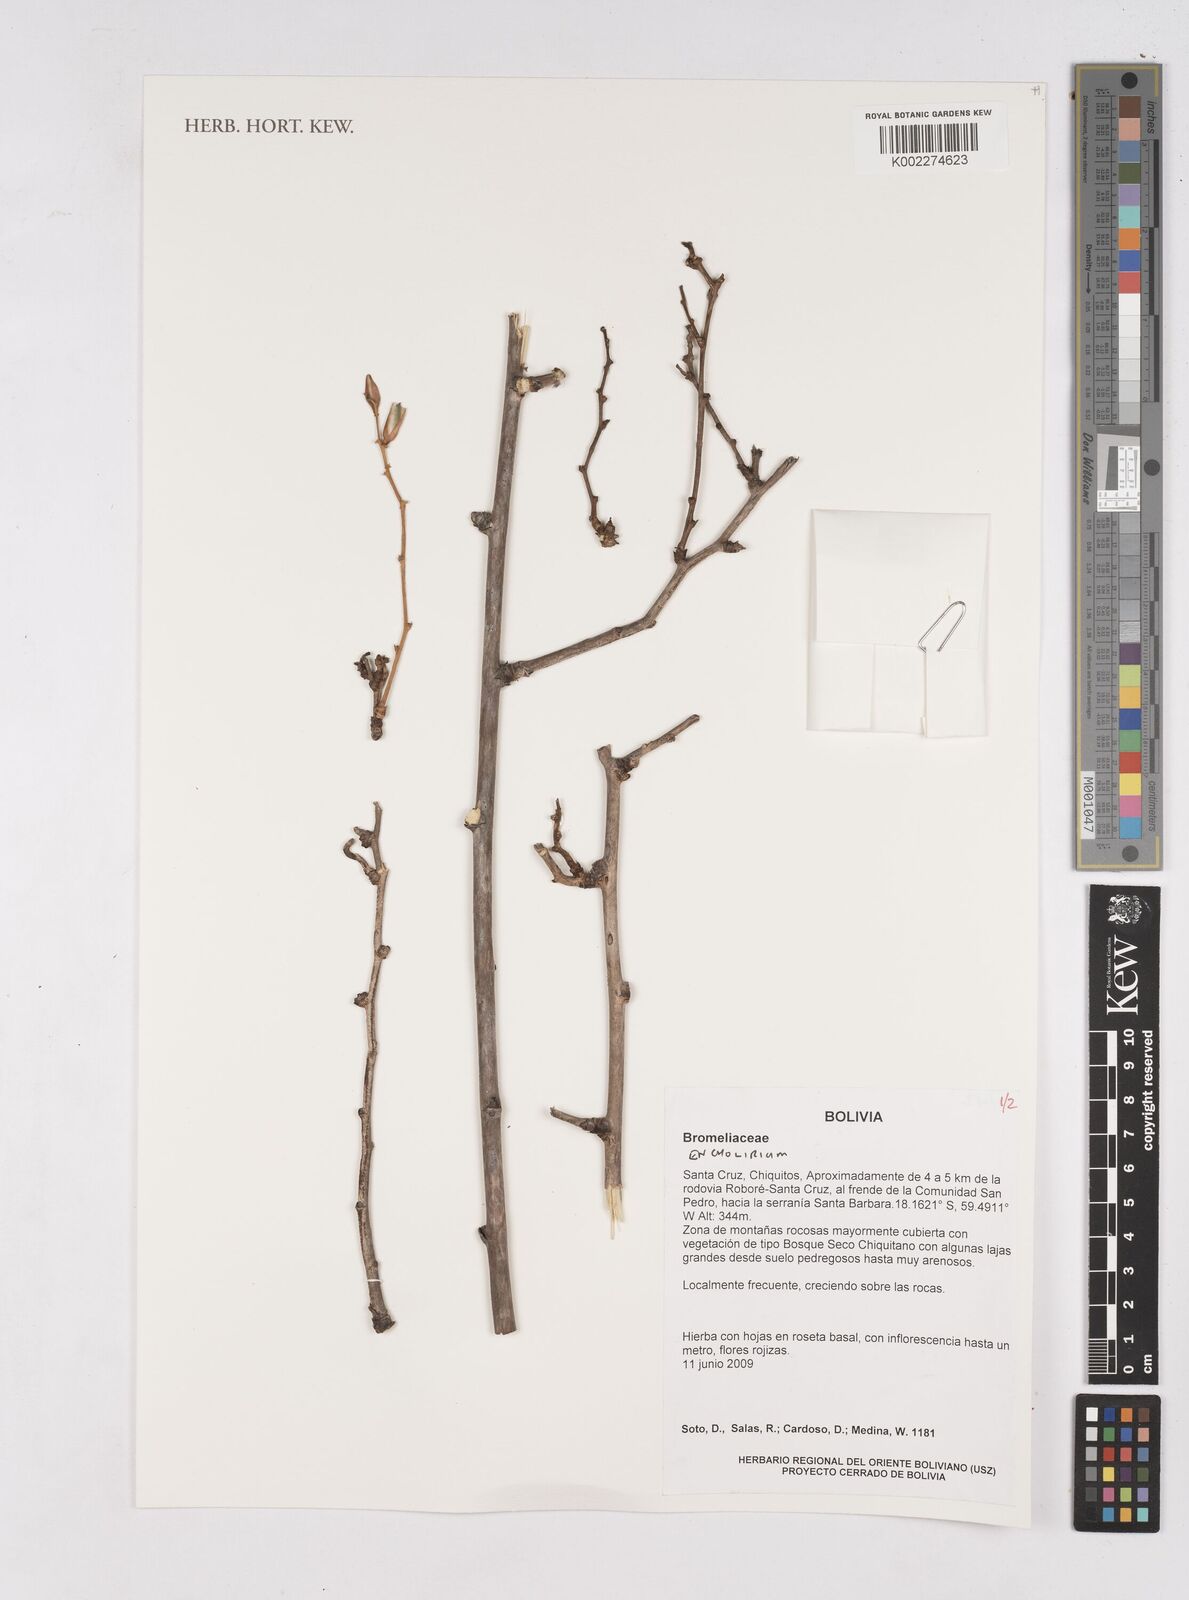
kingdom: Plantae
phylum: Tracheophyta
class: Liliopsida
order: Poales
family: Bromeliaceae
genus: Encholirium
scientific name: Encholirium
